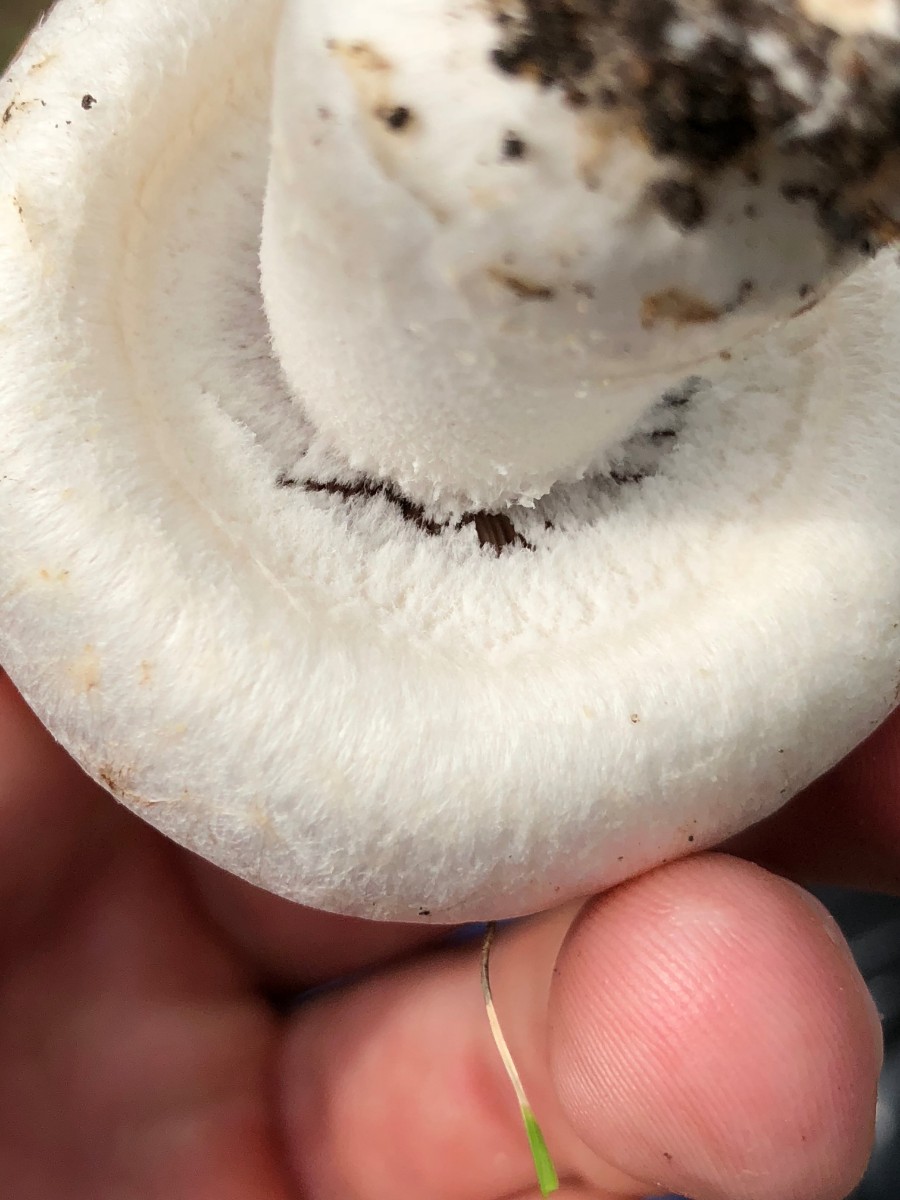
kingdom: Fungi
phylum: Basidiomycota
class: Agaricomycetes
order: Agaricales
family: Agaricaceae
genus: Agaricus
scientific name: Agaricus campestris
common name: mark-champignon
